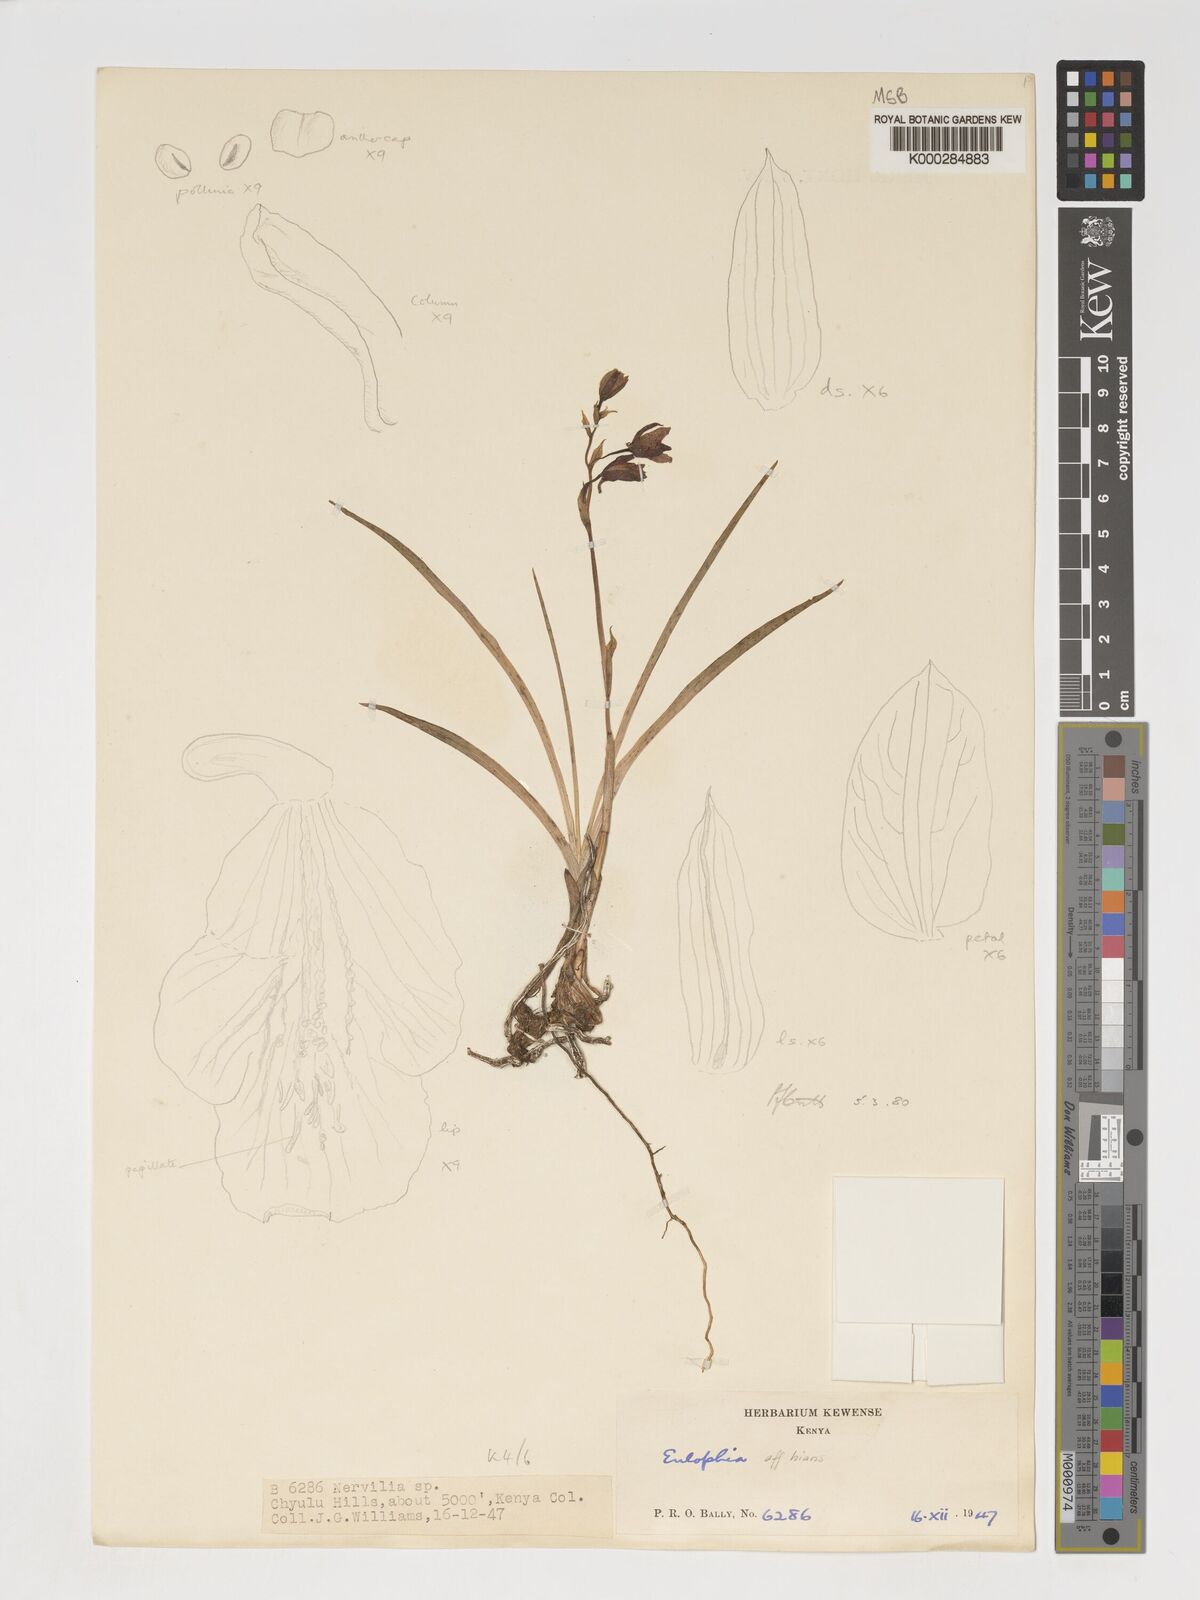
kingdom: Plantae
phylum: Tracheophyta
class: Liliopsida
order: Asparagales
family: Orchidaceae
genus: Eulophia
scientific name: Eulophia hians
